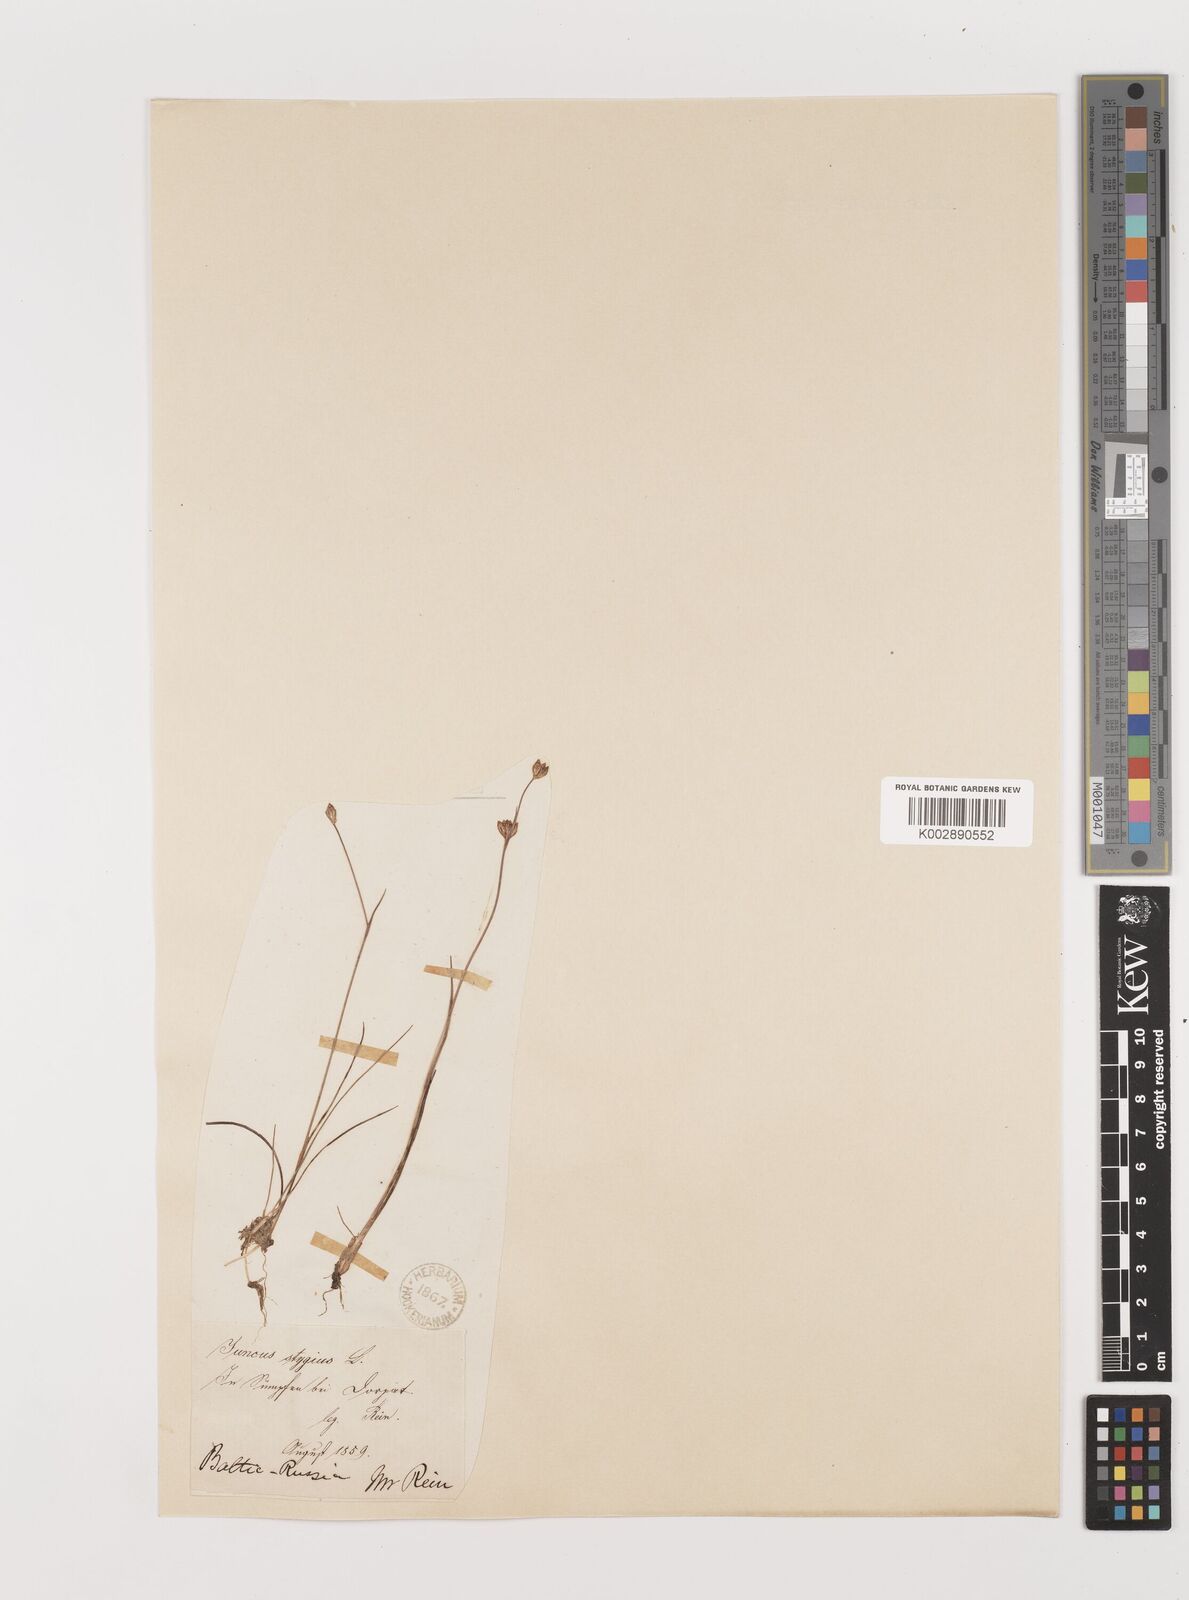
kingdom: Plantae
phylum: Tracheophyta
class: Liliopsida
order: Poales
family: Juncaceae
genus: Juncus
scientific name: Juncus stygius
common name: Bog rush
